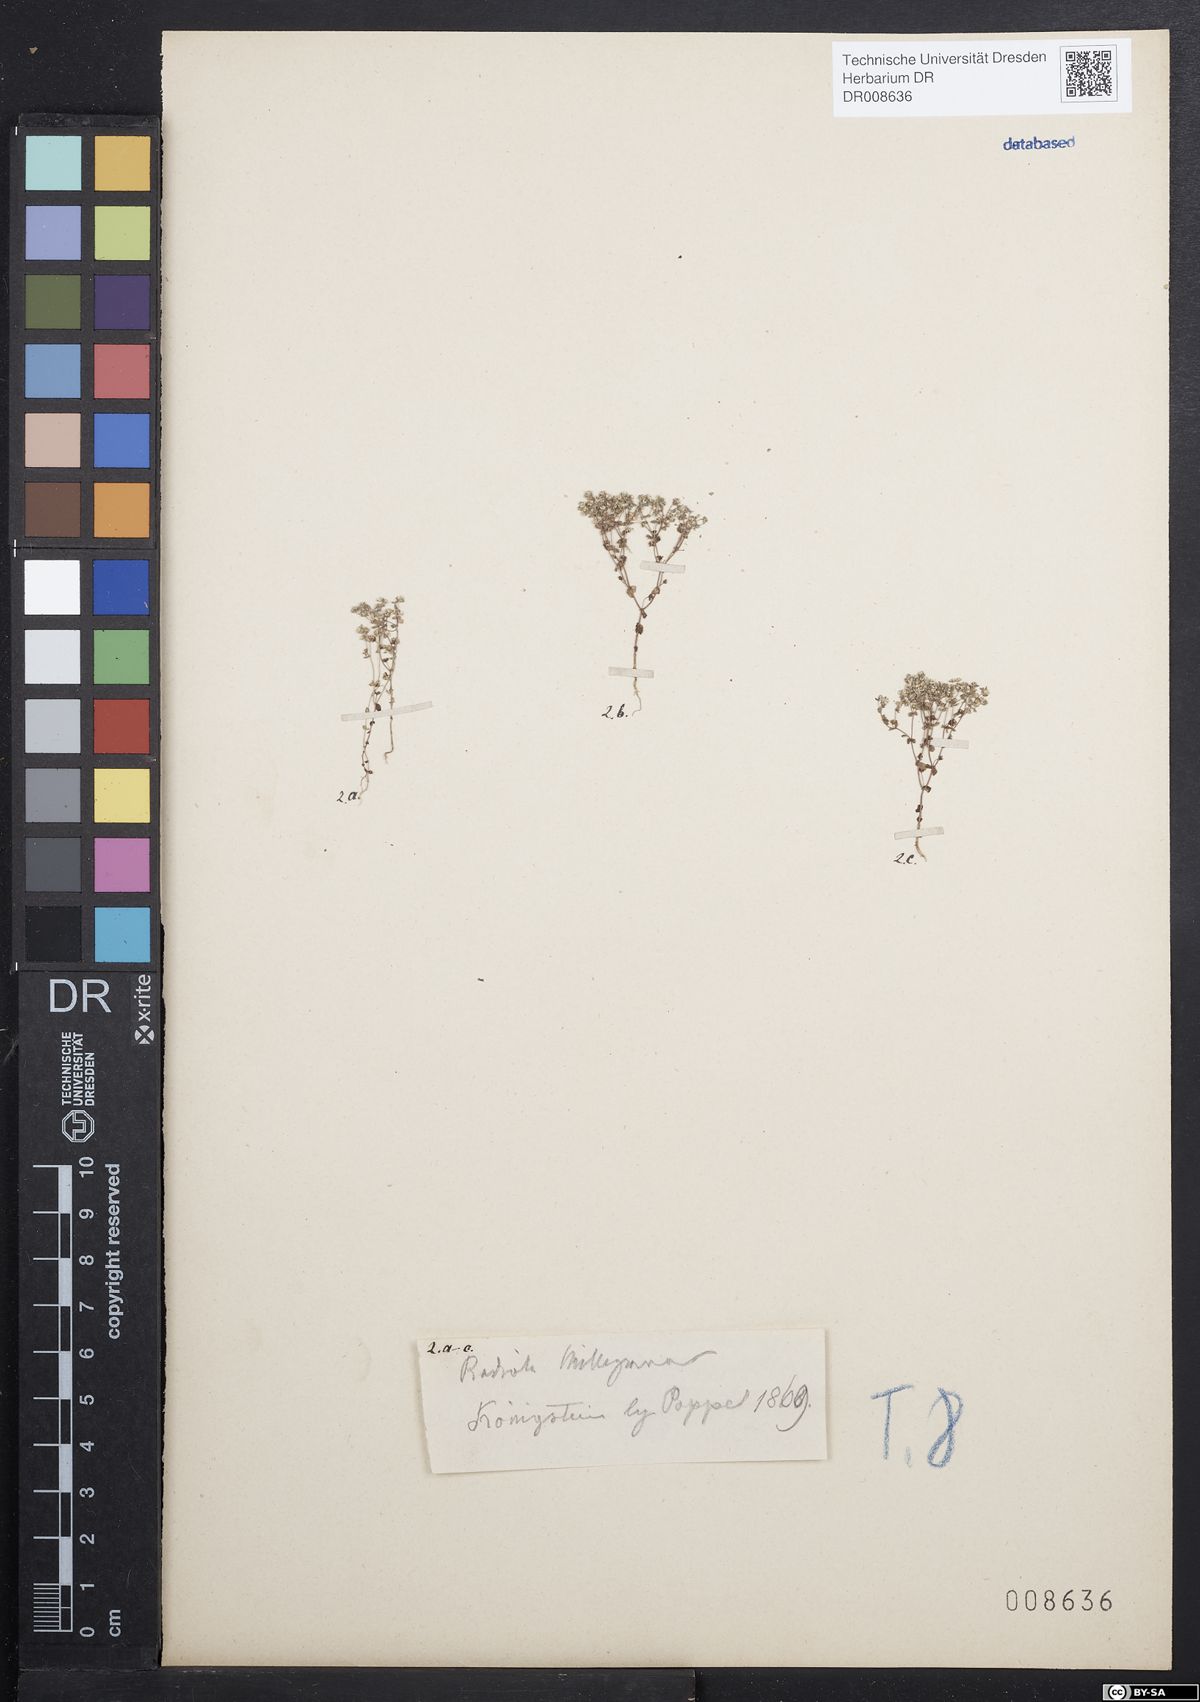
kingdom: Plantae
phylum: Tracheophyta
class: Magnoliopsida
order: Malpighiales
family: Linaceae
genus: Radiola
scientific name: Radiola linoides
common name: Allseed
